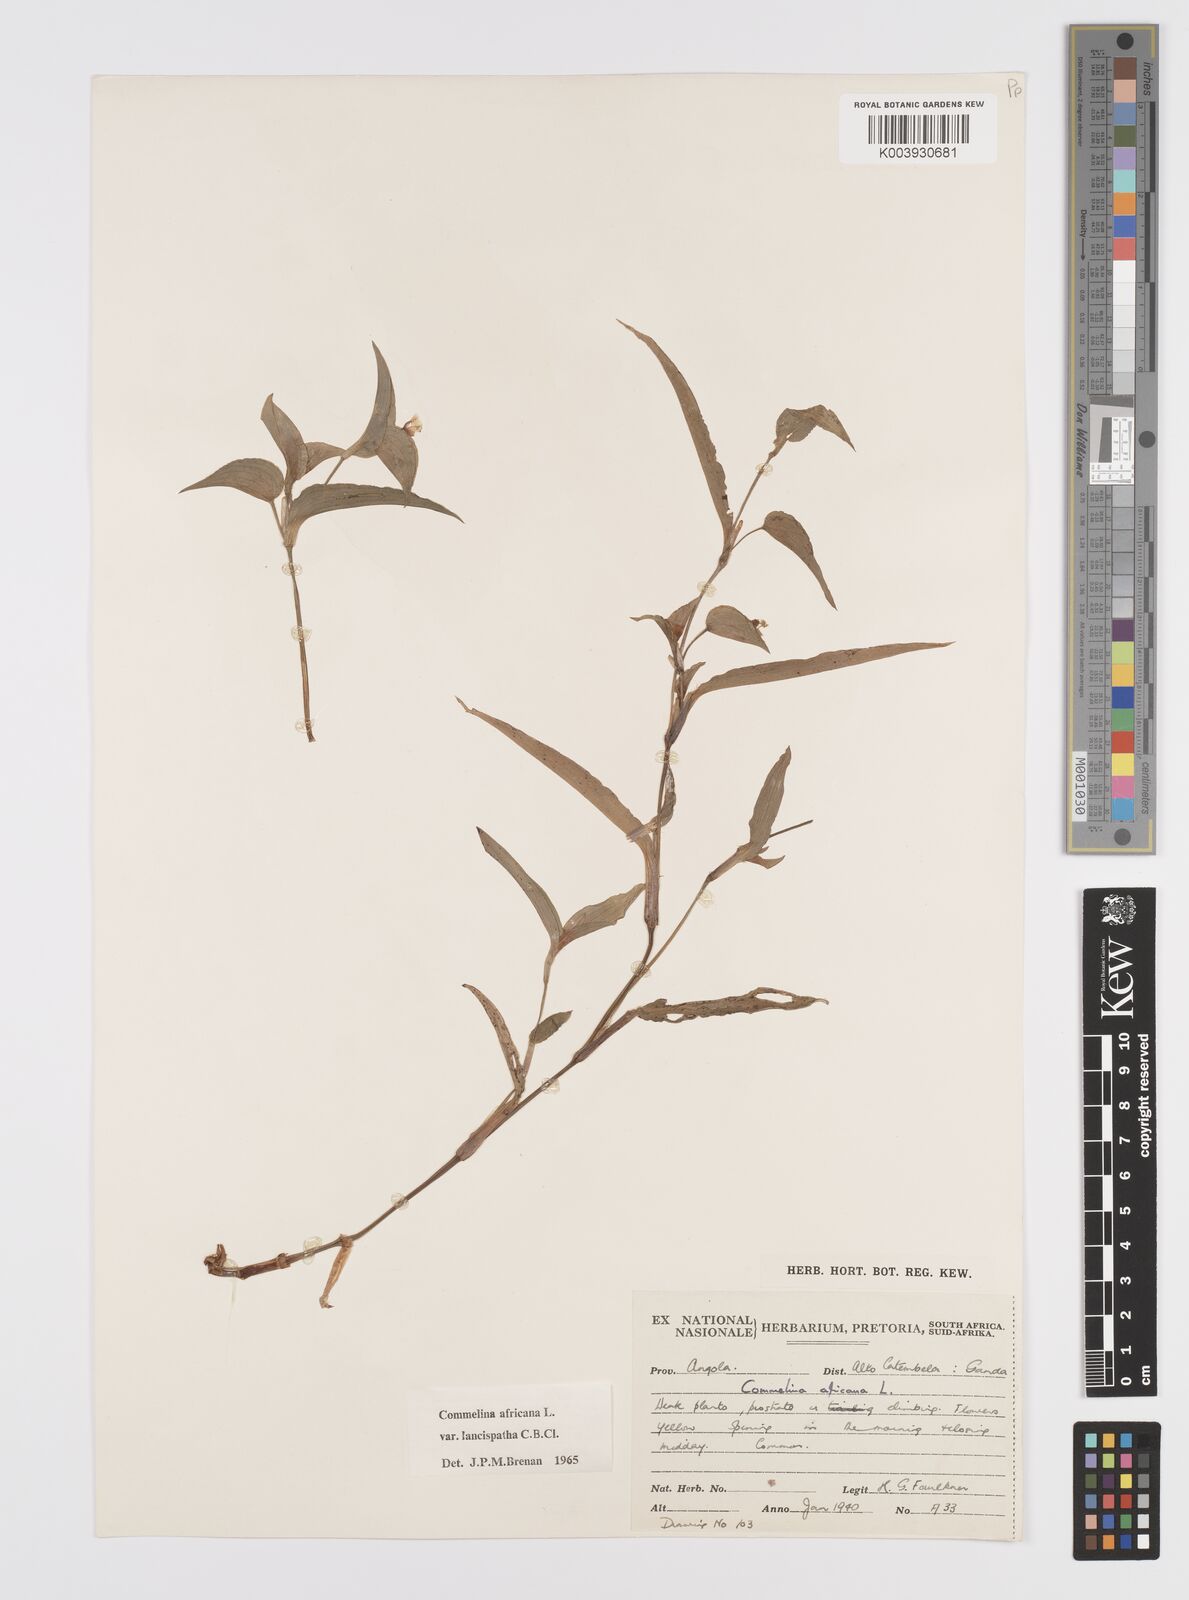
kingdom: Plantae
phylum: Tracheophyta
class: Liliopsida
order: Commelinales
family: Commelinaceae
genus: Commelina
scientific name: Commelina africana
